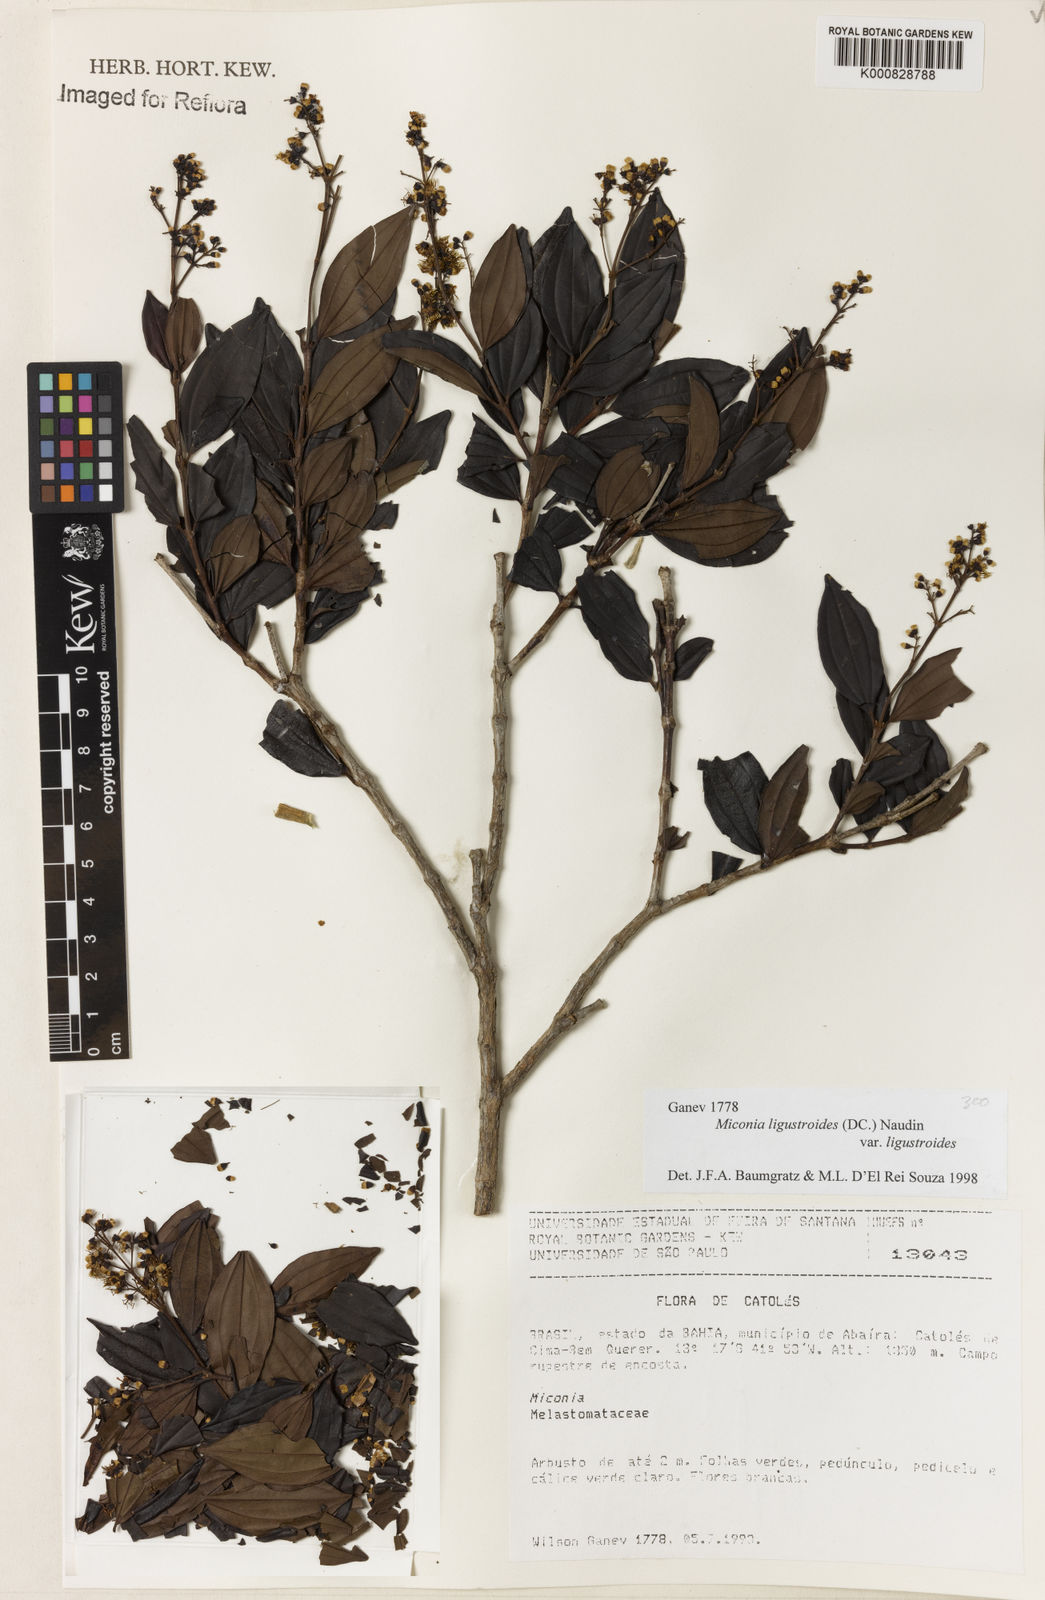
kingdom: Plantae
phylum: Tracheophyta
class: Magnoliopsida
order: Myrtales
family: Melastomataceae
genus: Miconia
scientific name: Miconia ligustroides
